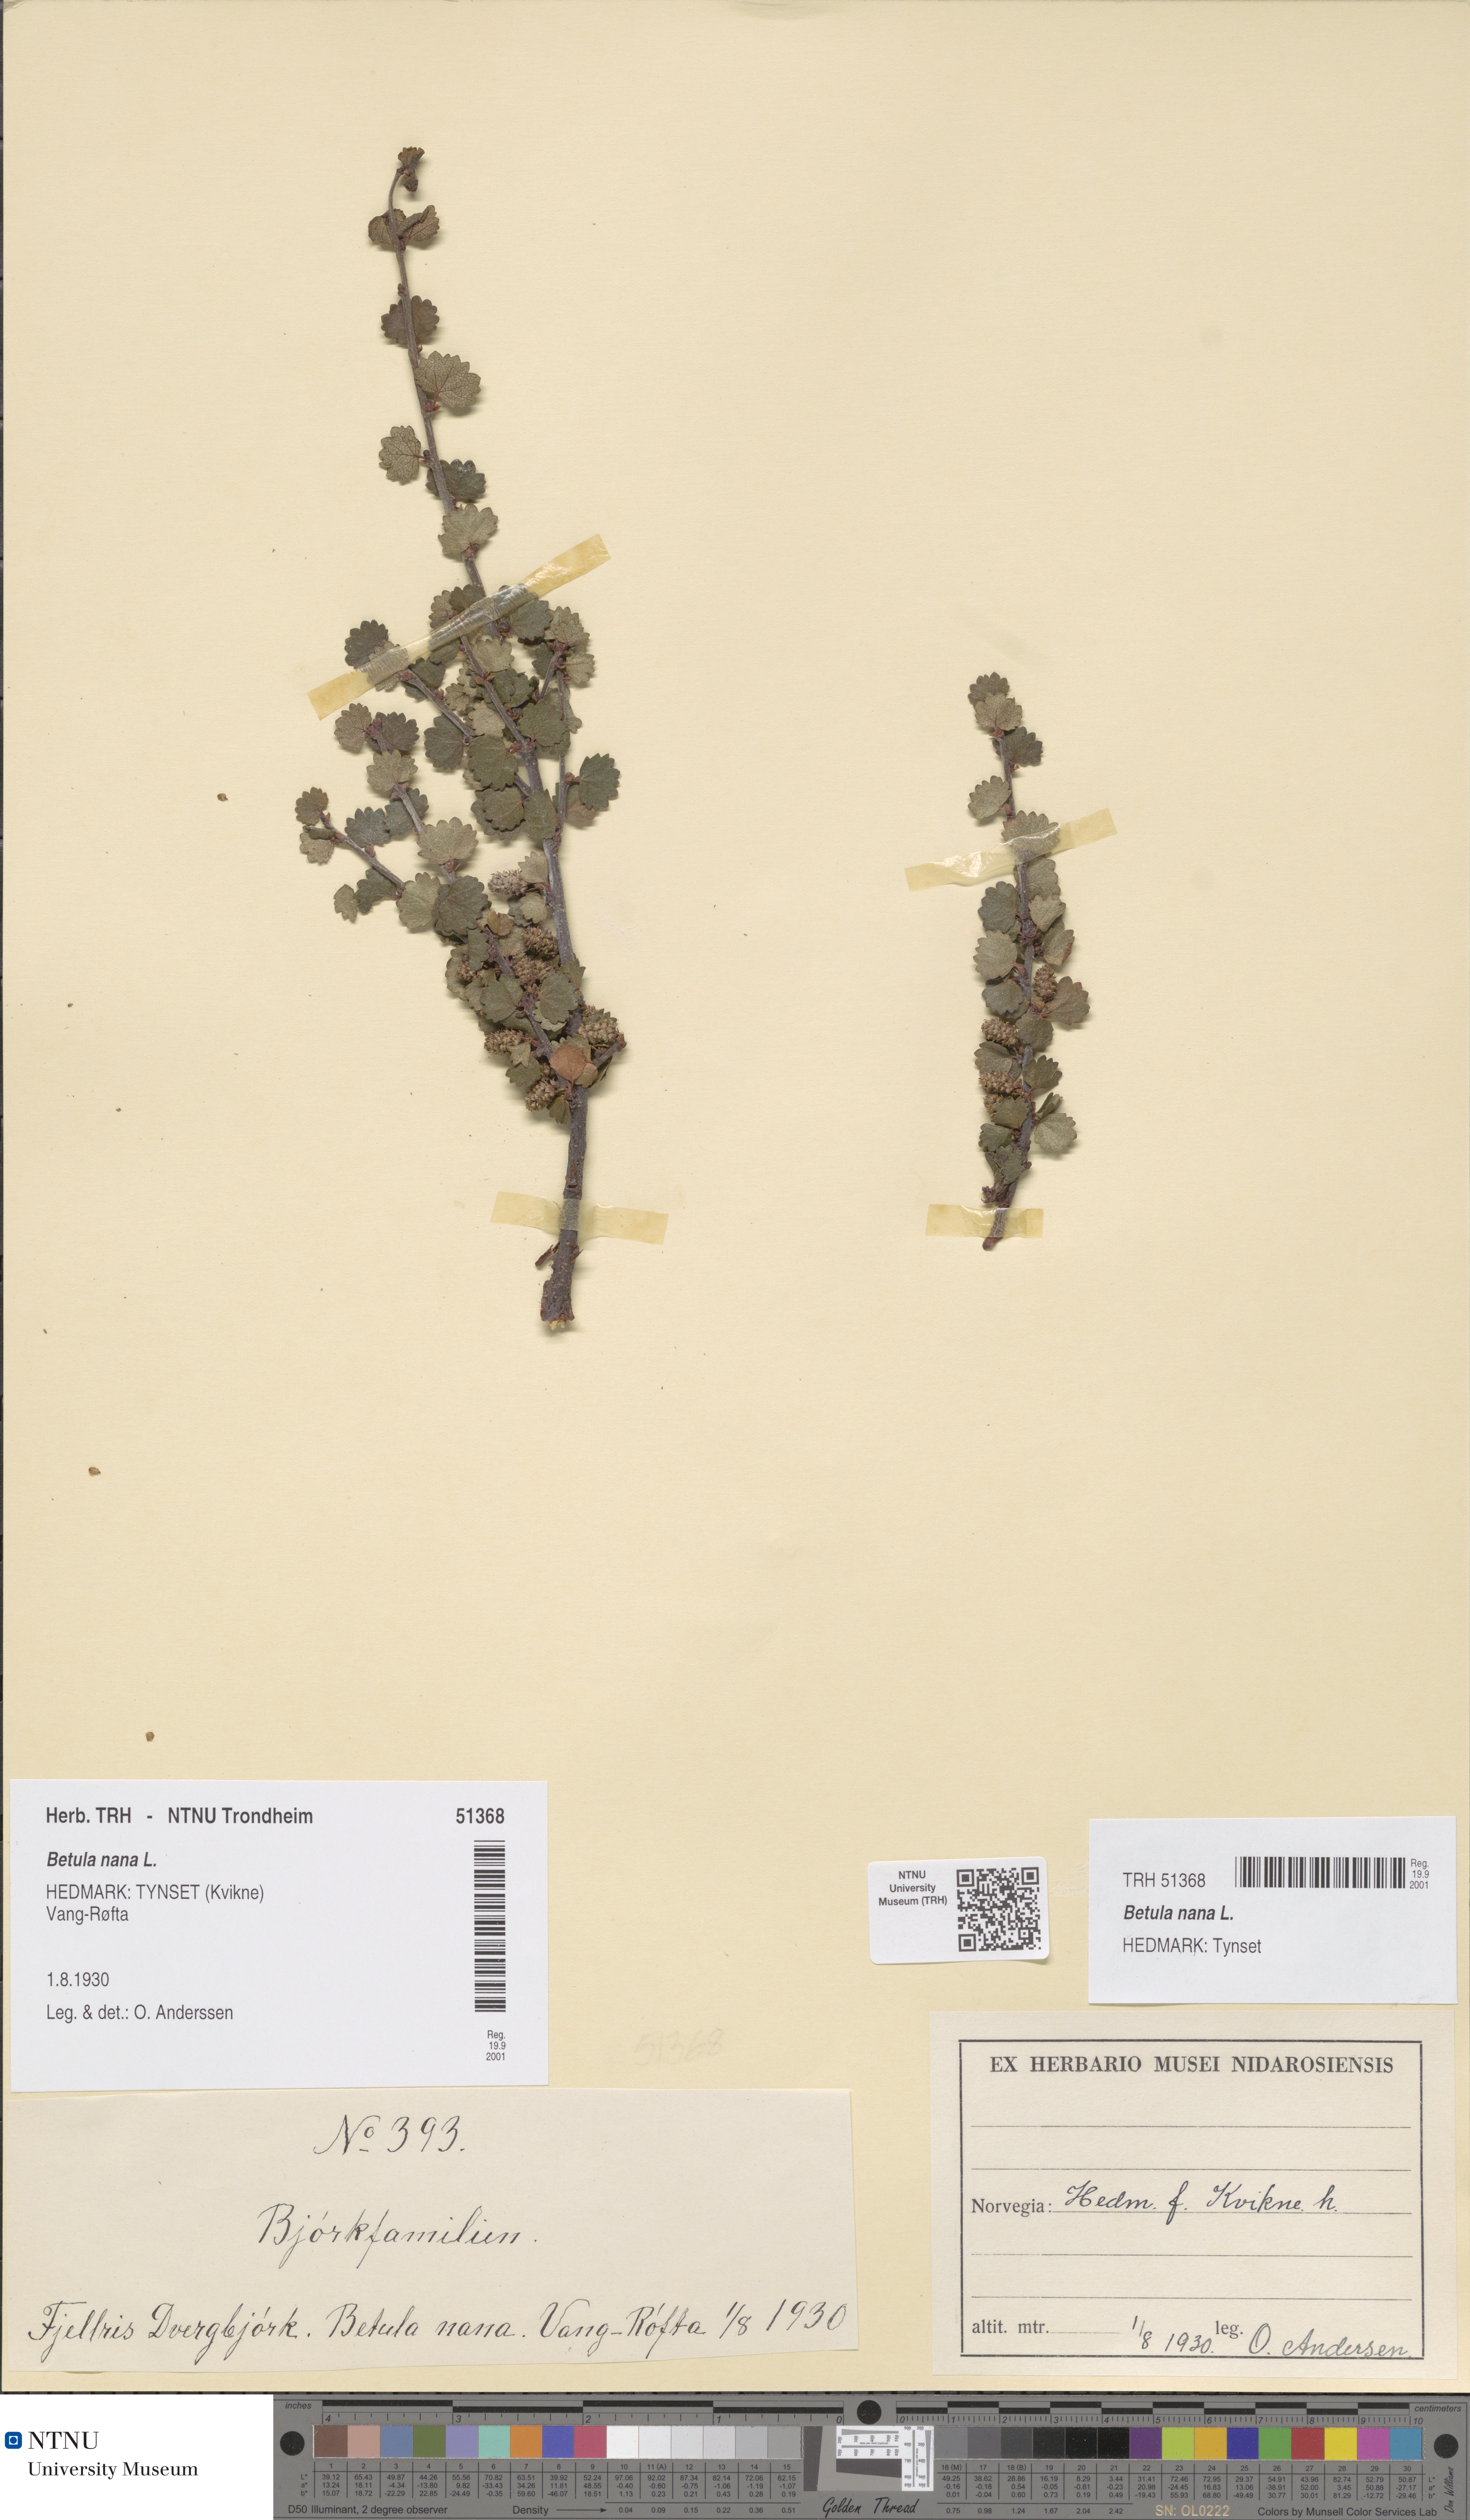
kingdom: Plantae
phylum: Tracheophyta
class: Magnoliopsida
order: Fagales
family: Betulaceae
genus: Betula
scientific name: Betula nana
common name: Arctic dwarf birch
